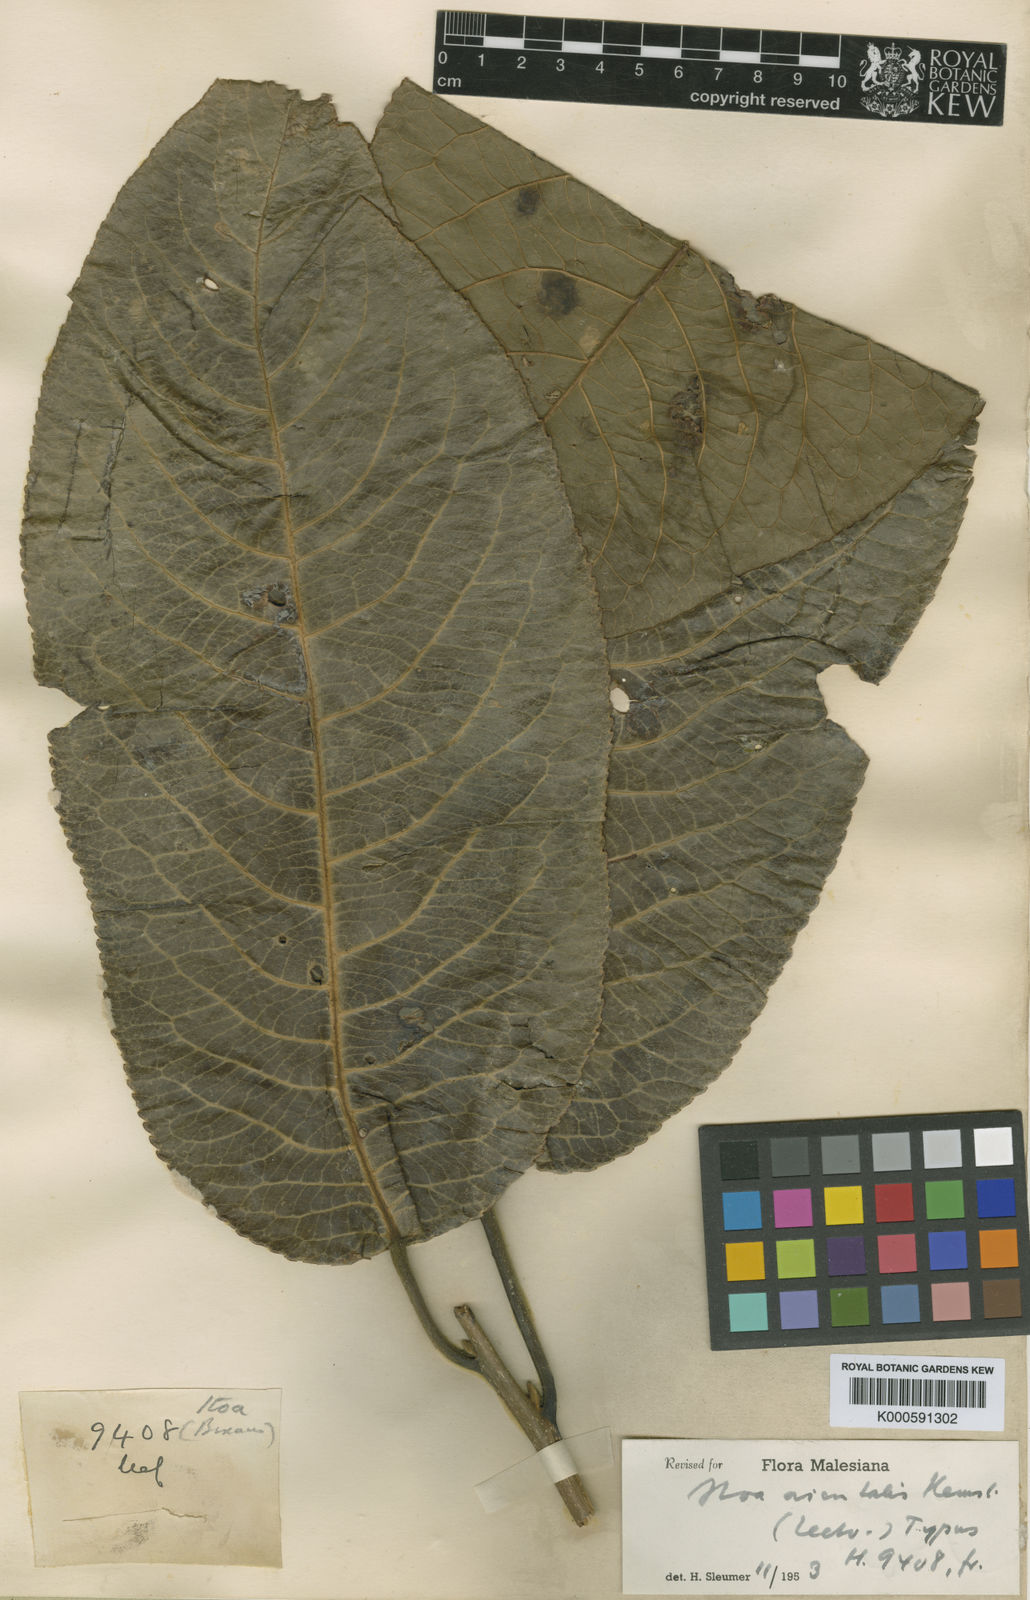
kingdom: Plantae
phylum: Tracheophyta
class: Magnoliopsida
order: Malpighiales
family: Salicaceae
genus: Itoa
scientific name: Itoa orientalis
